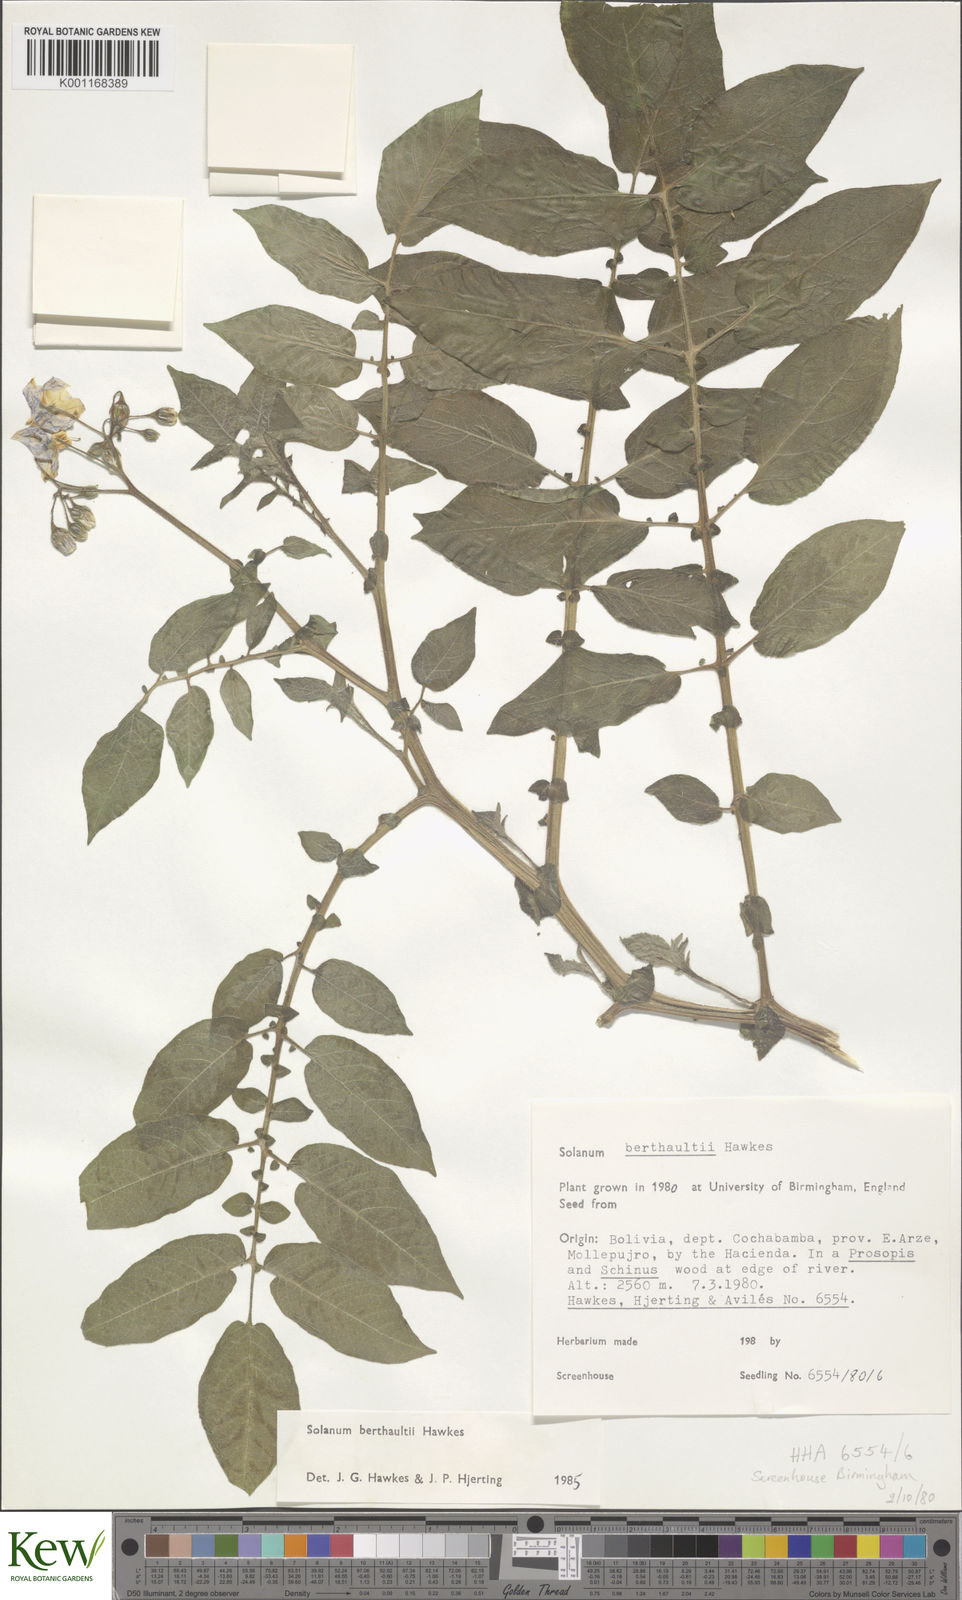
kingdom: Plantae
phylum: Tracheophyta
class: Magnoliopsida
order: Solanales
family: Solanaceae
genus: Solanum
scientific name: Solanum berthaultii
